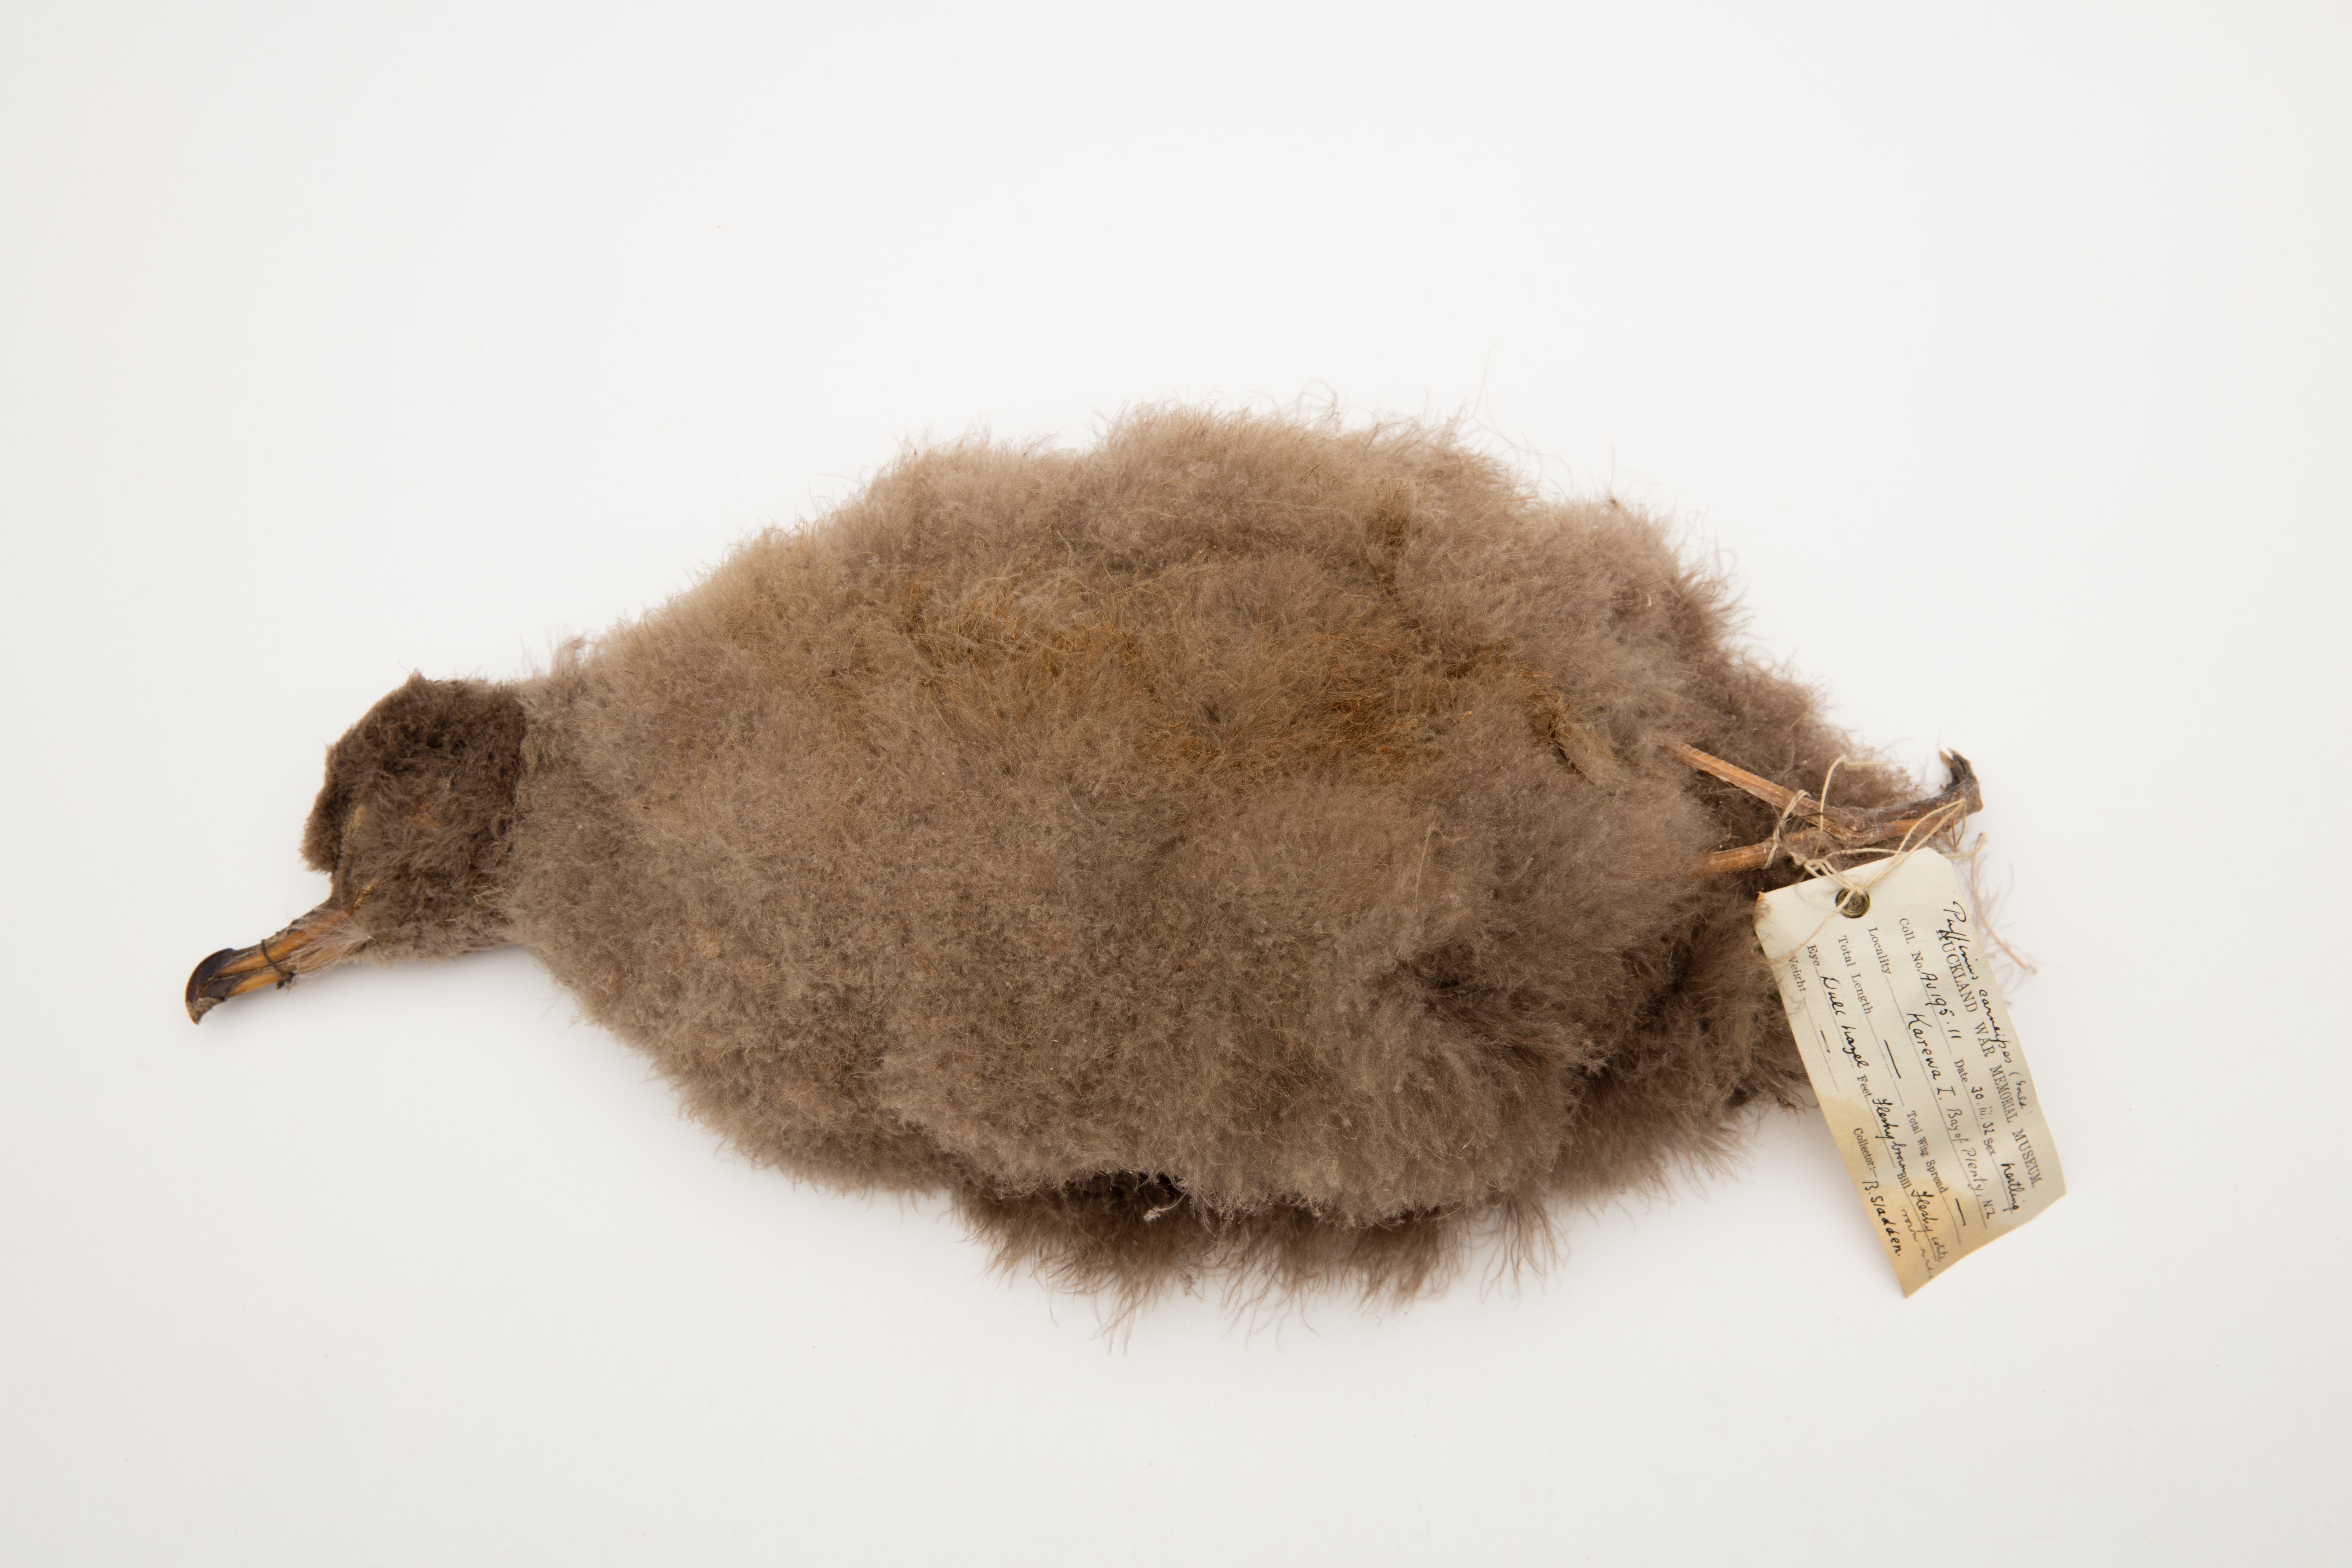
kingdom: Animalia
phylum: Chordata
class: Aves
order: Procellariiformes
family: Procellariidae
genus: Puffinus
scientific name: Puffinus carneipes
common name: Flesh-footed shearwater
